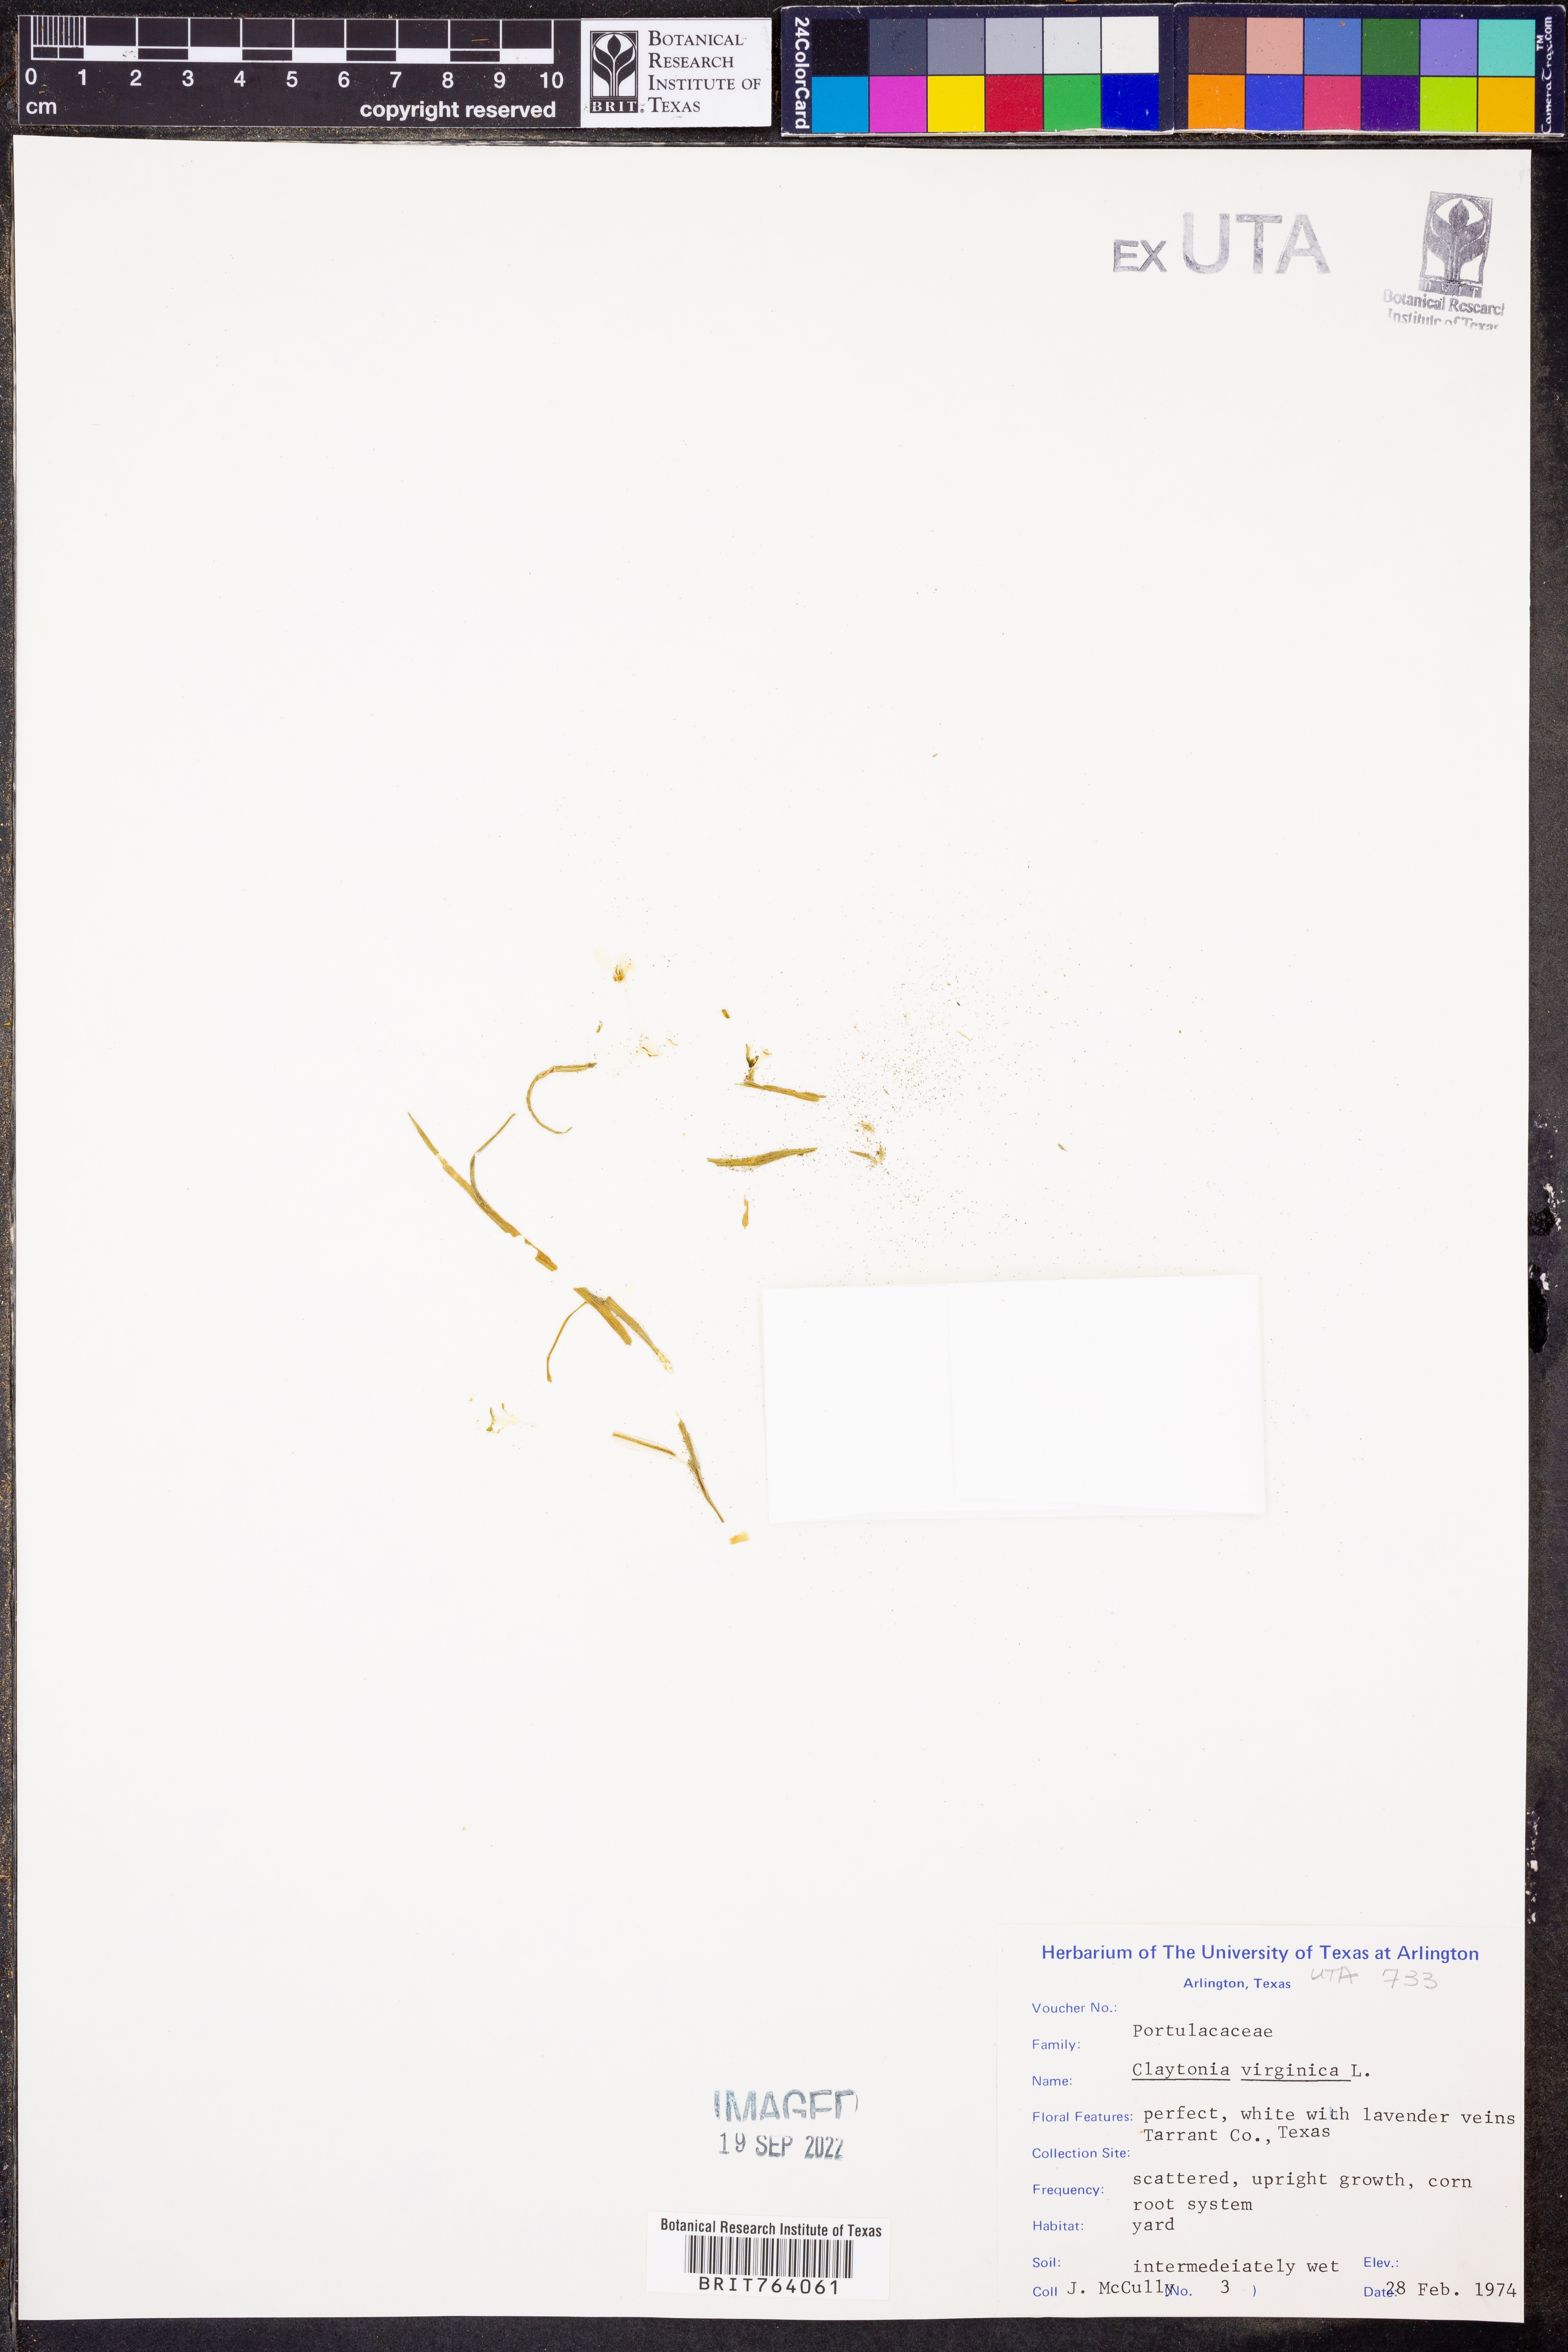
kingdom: Plantae
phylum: Tracheophyta
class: Magnoliopsida
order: Caryophyllales
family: Montiaceae
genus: Claytonia
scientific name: Claytonia virginica
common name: Virginia springbeauty
